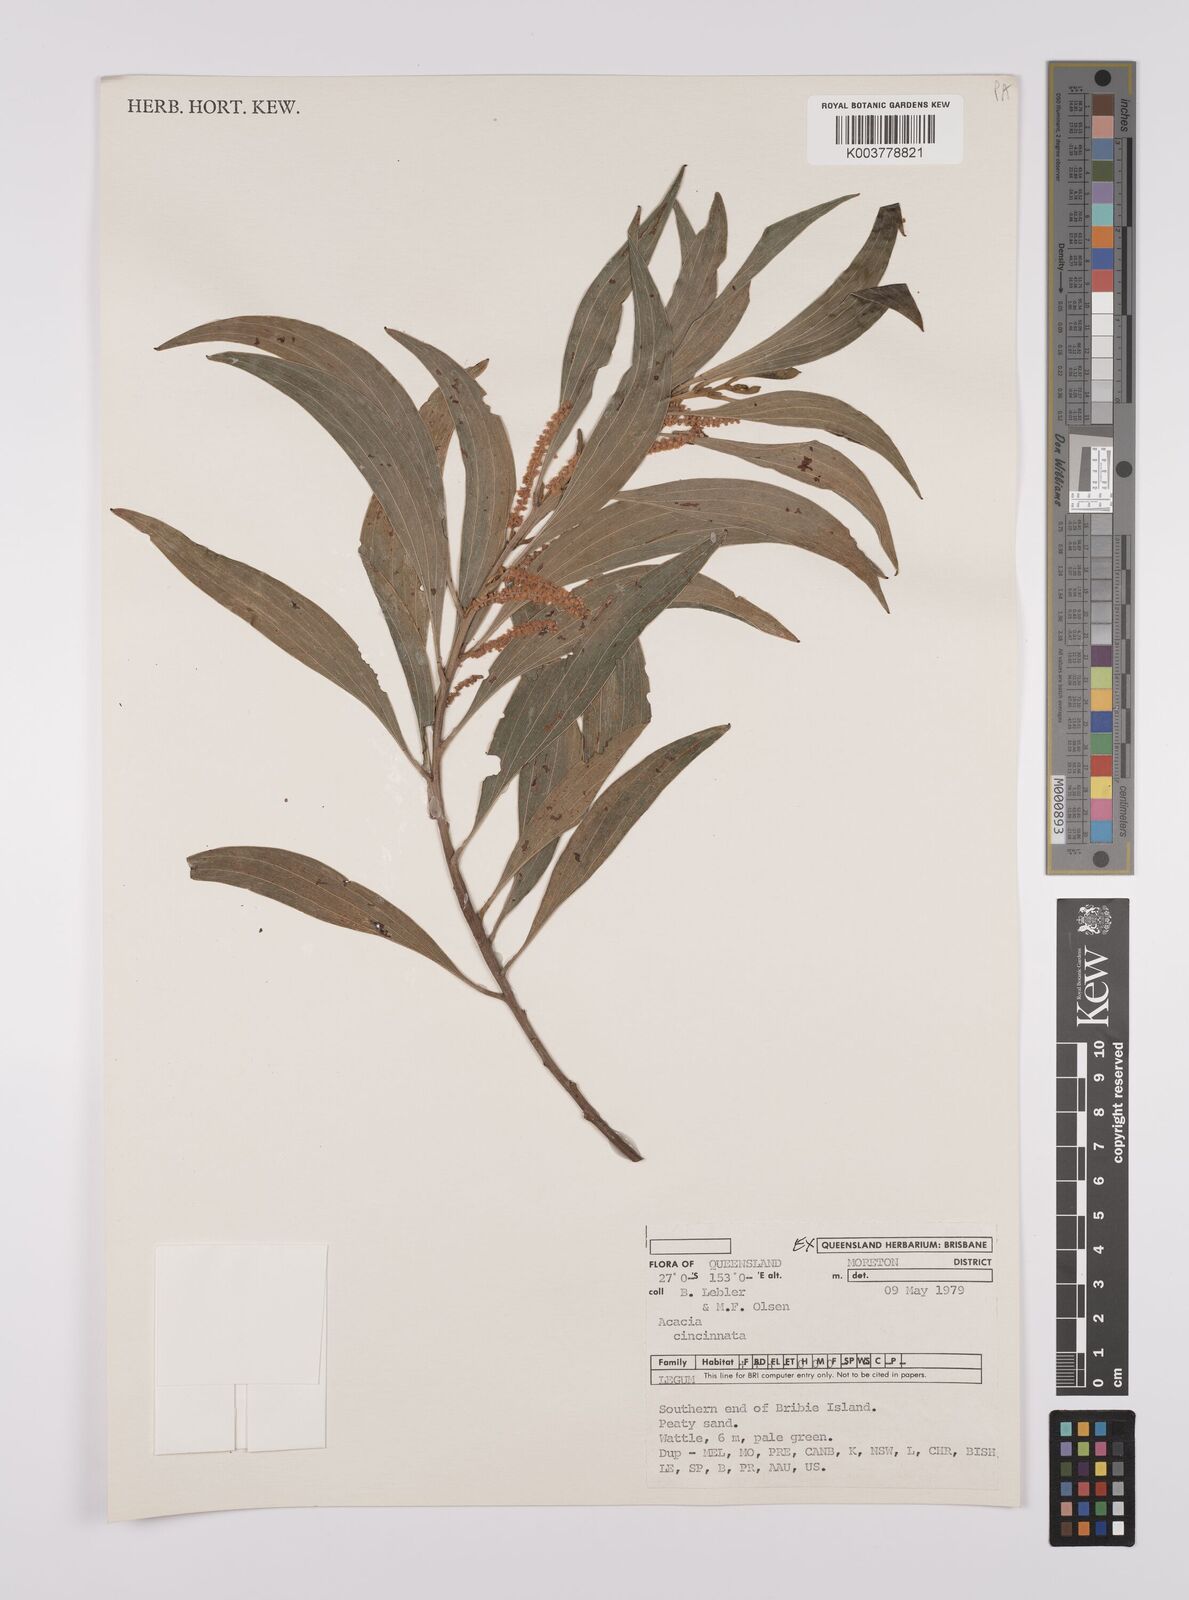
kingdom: Plantae
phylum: Tracheophyta
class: Magnoliopsida
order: Fabales
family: Fabaceae
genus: Acacia
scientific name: Acacia cincinnata
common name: Daintree wattle
